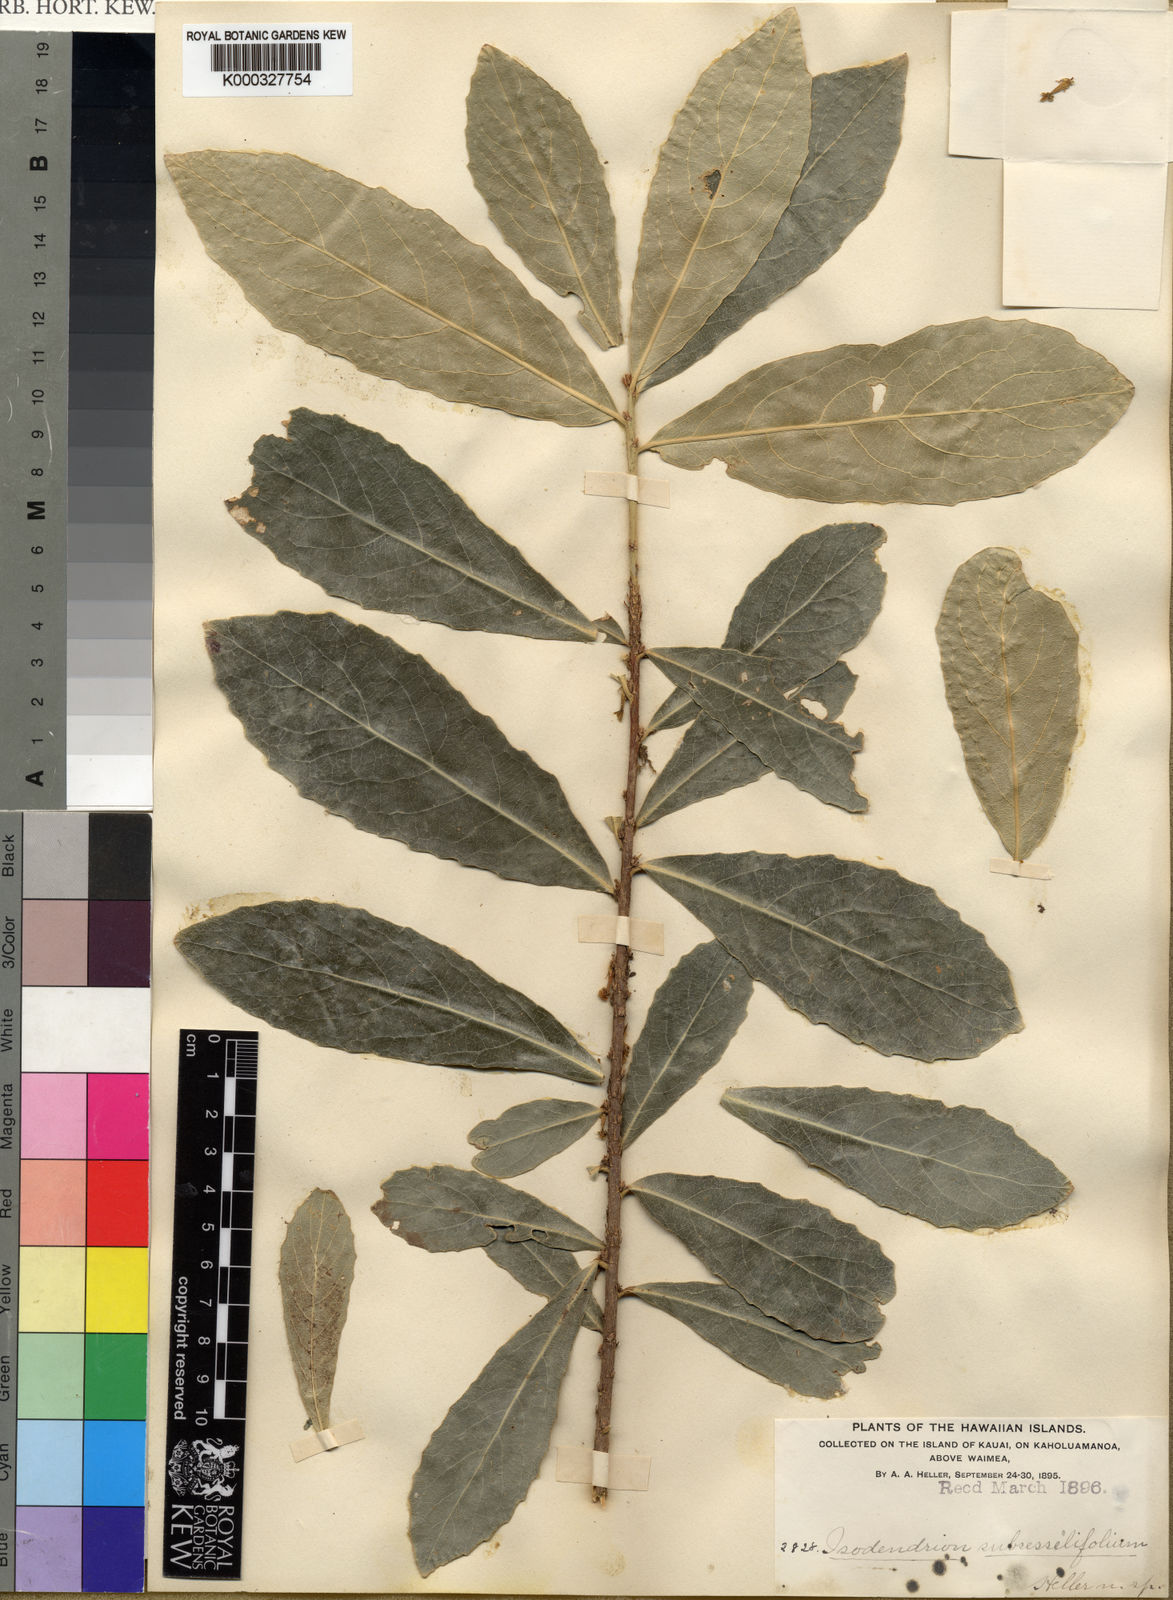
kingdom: Plantae
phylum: Tracheophyta
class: Magnoliopsida
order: Malpighiales
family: Violaceae
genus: Isodendrion
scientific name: Isodendrion laurifolium
